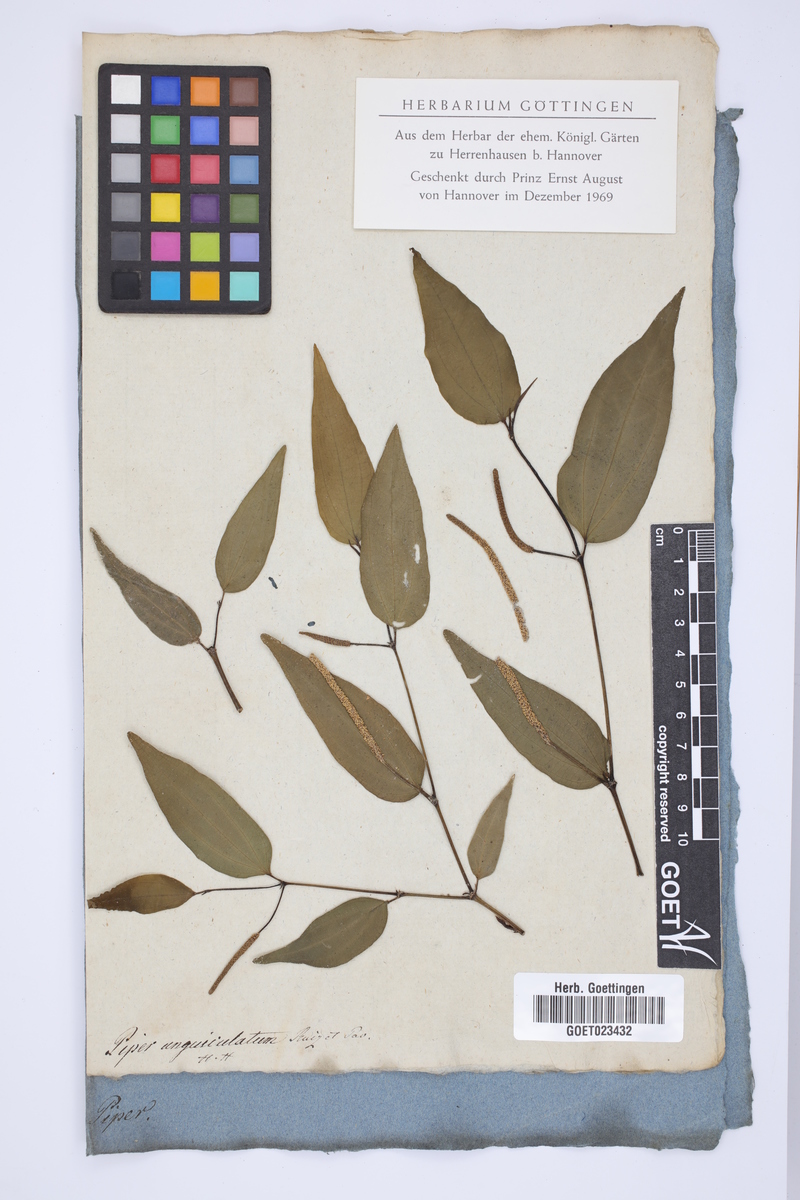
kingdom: Plantae
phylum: Tracheophyta
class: Magnoliopsida
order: Piperales
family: Piperaceae
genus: Piper
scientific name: Piper unguiculatum
